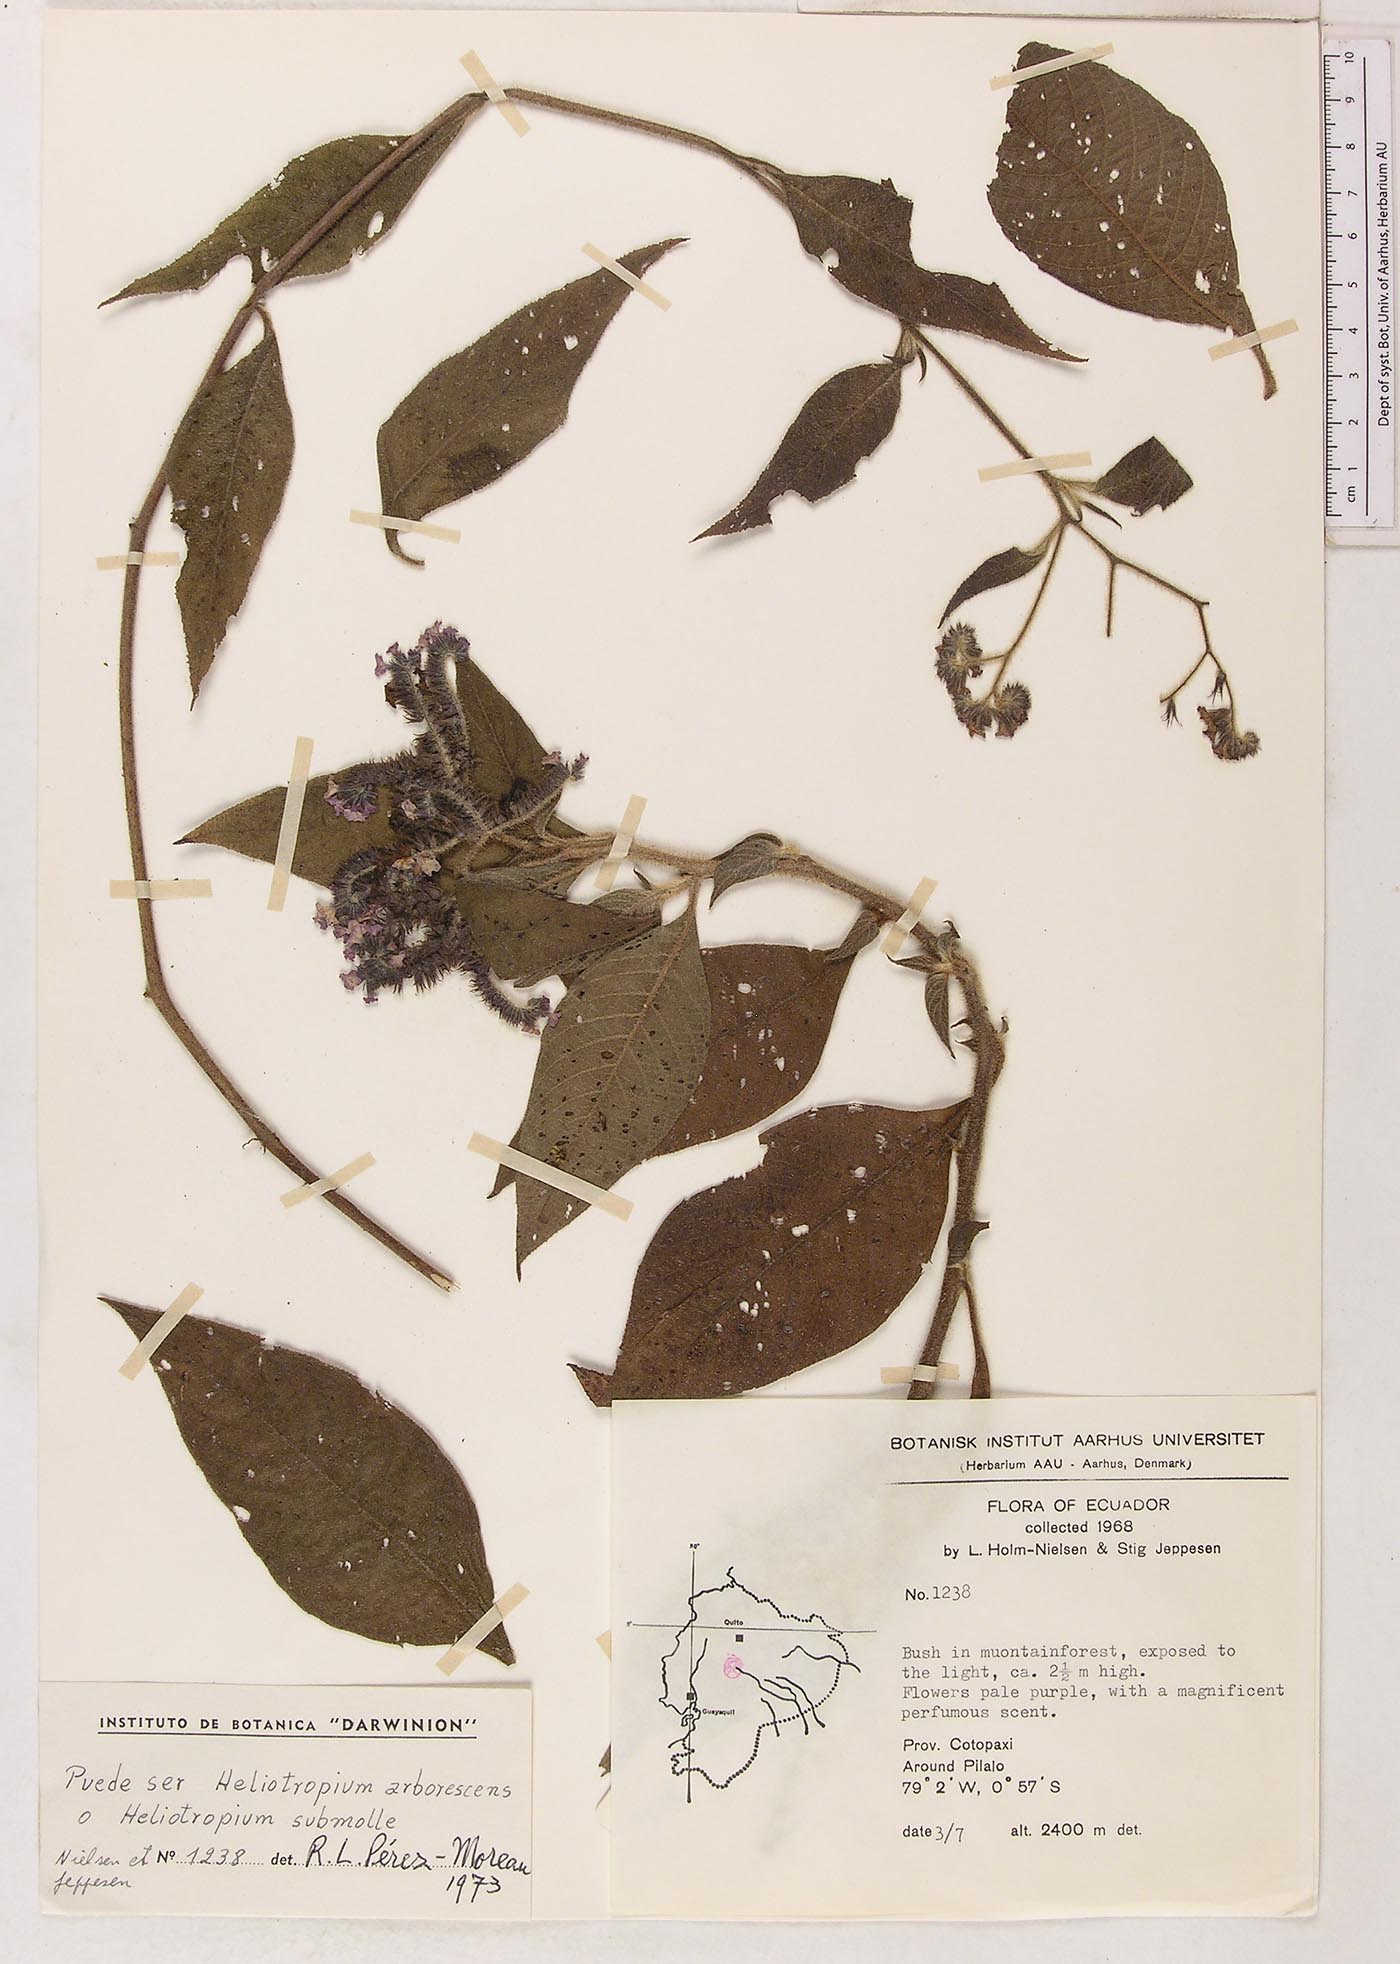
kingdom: Plantae
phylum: Tracheophyta
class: Magnoliopsida
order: Boraginales
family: Heliotropiaceae
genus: Heliotropium
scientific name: Heliotropium
